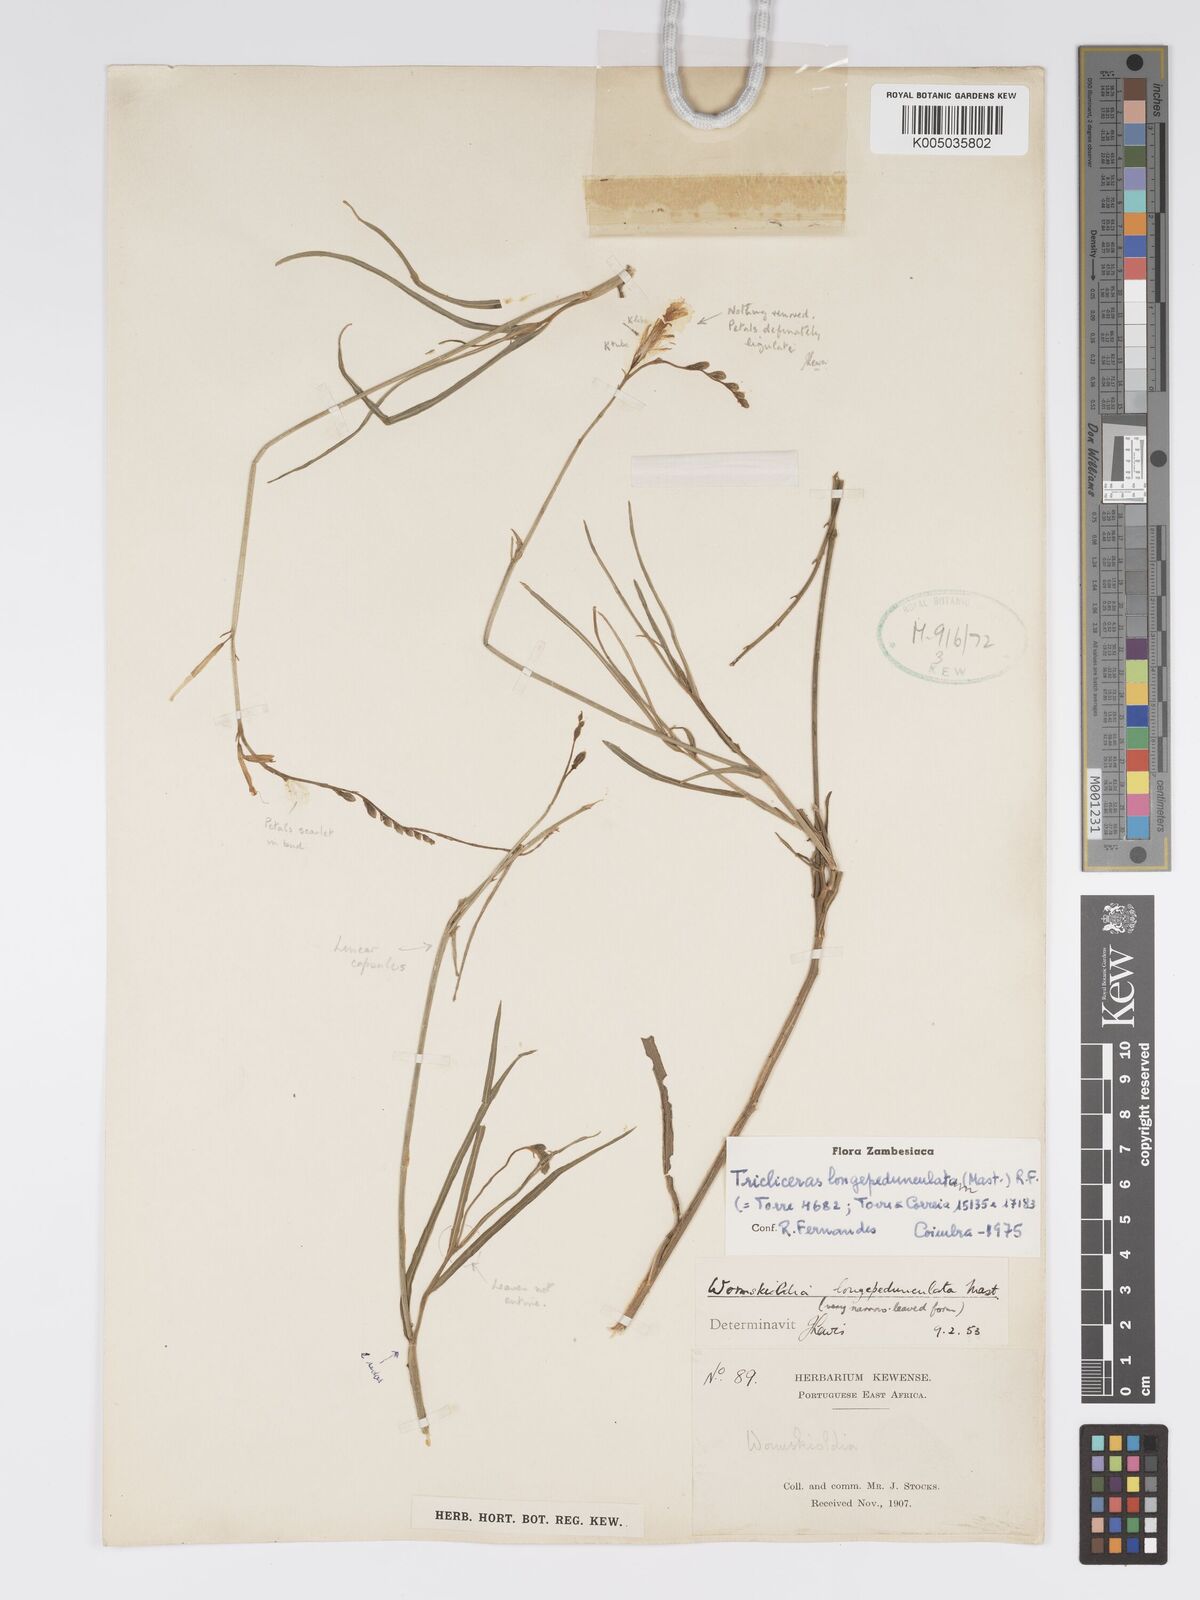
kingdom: Plantae
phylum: Tracheophyta
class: Magnoliopsida
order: Malpighiales
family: Turneraceae
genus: Tricliceras
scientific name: Tricliceras longepedunculatum
